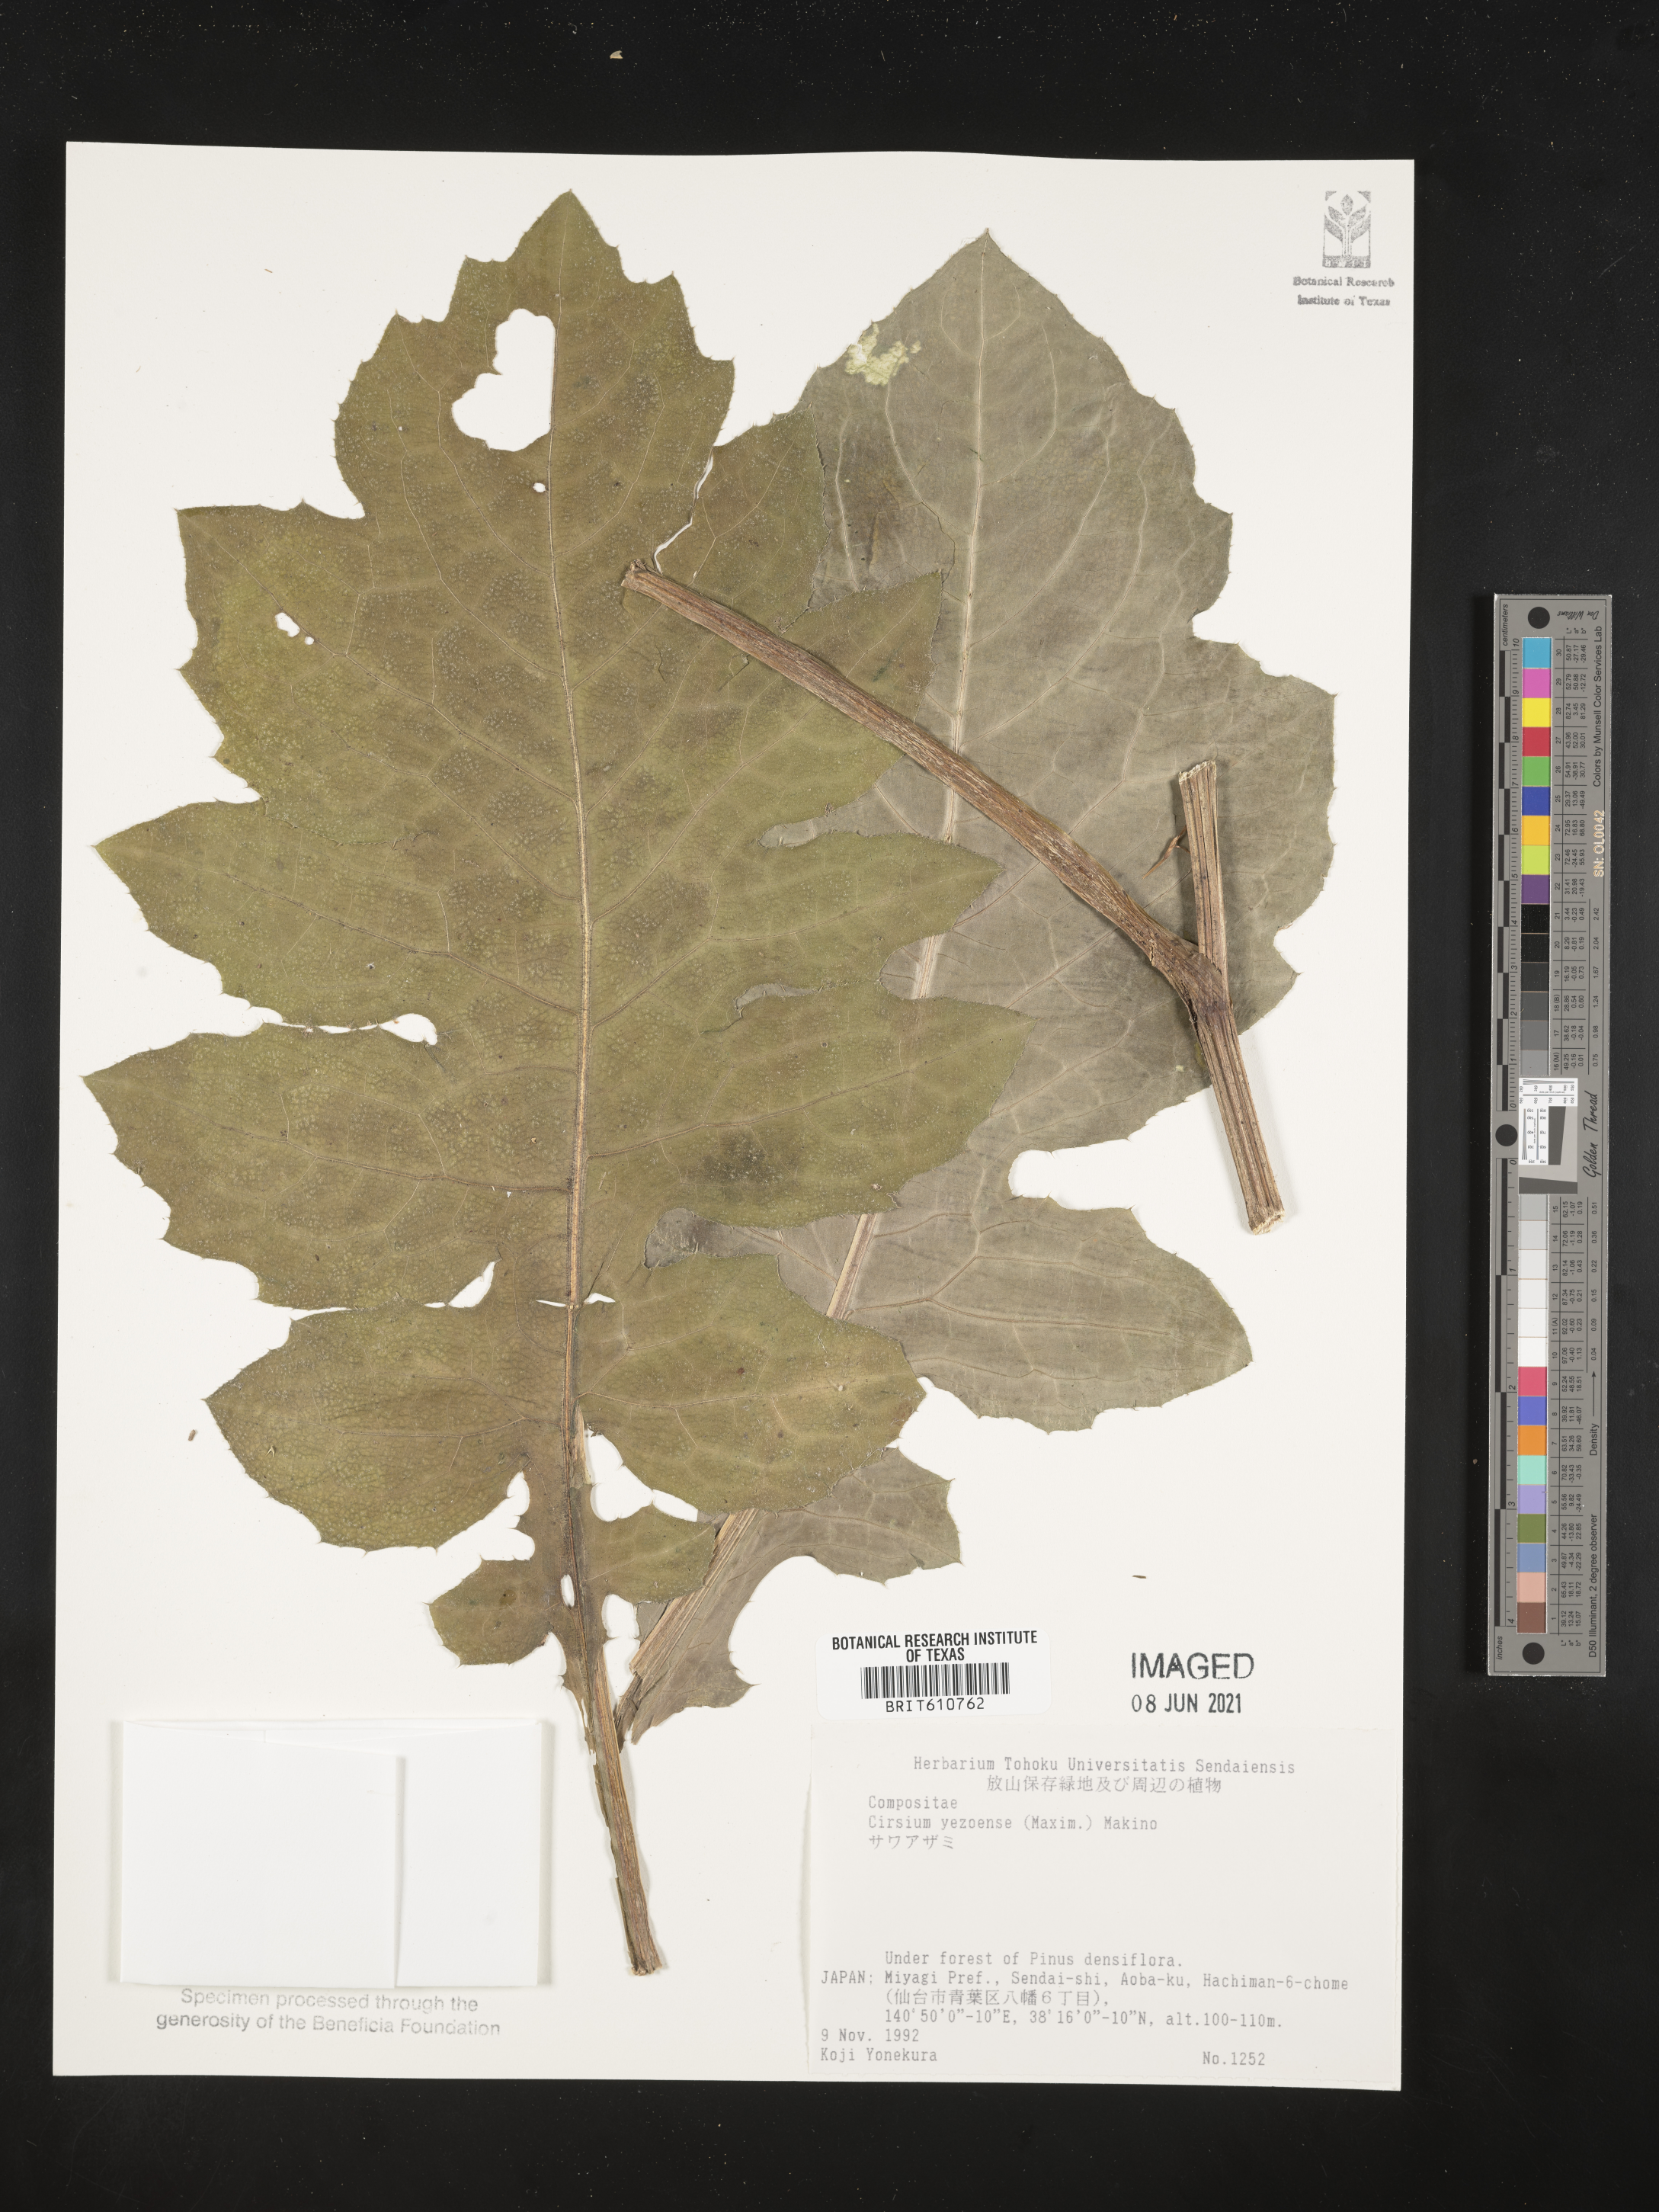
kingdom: Plantae
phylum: Tracheophyta
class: Magnoliopsida
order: Asterales
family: Asteraceae
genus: Cirsium
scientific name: Cirsium yezoense
